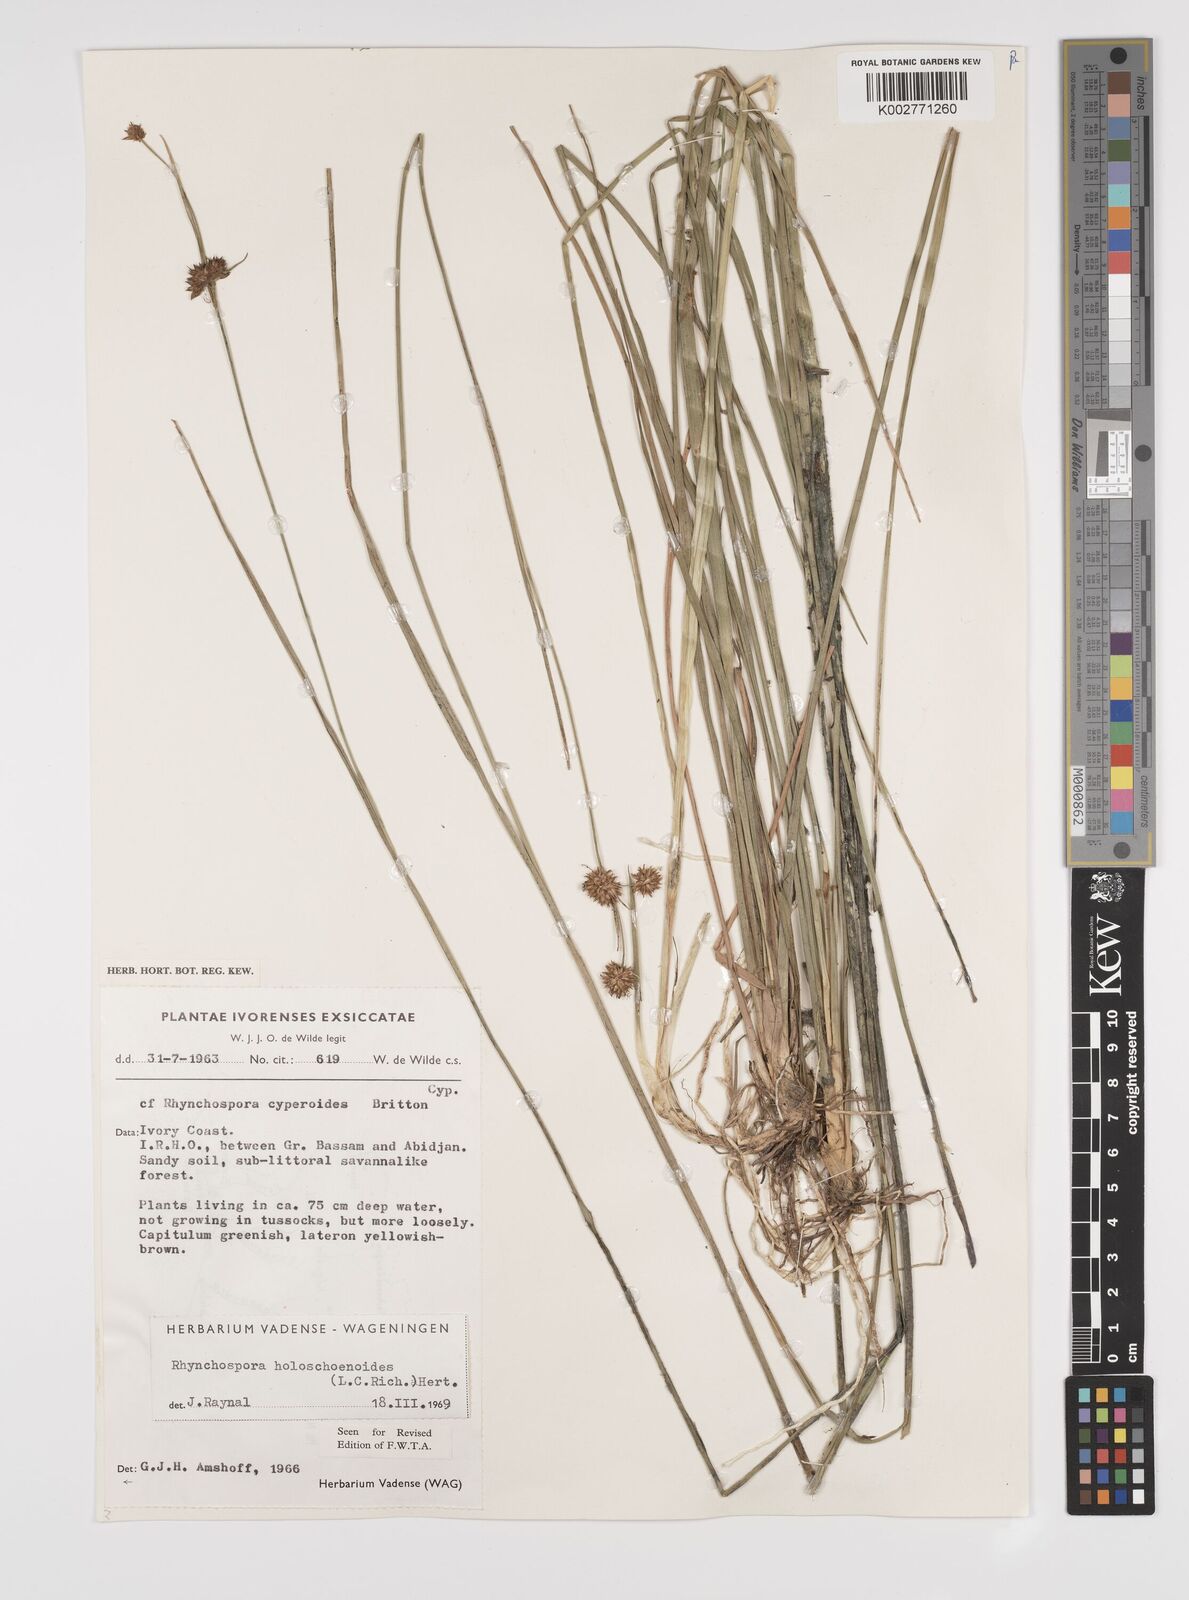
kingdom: Plantae
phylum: Tracheophyta
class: Liliopsida
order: Poales
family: Cyperaceae
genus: Rhynchospora
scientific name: Rhynchospora holoschoenoides
